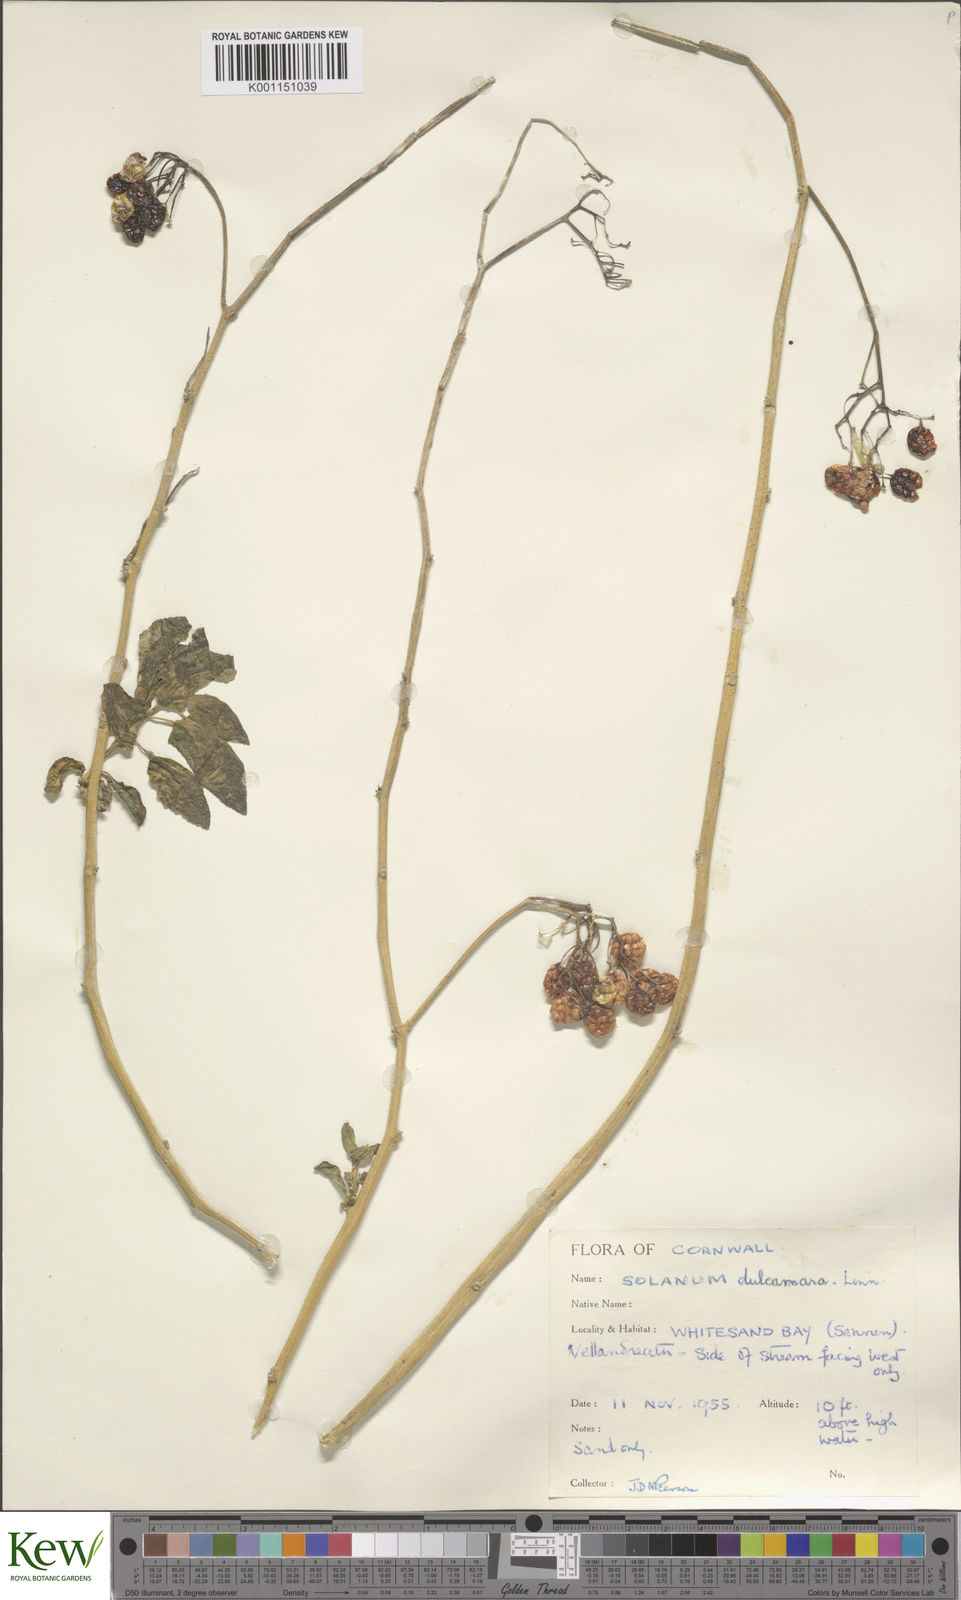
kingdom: Plantae
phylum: Tracheophyta
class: Magnoliopsida
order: Solanales
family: Solanaceae
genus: Solanum
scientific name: Solanum dulcamara
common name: Climbing nightshade
